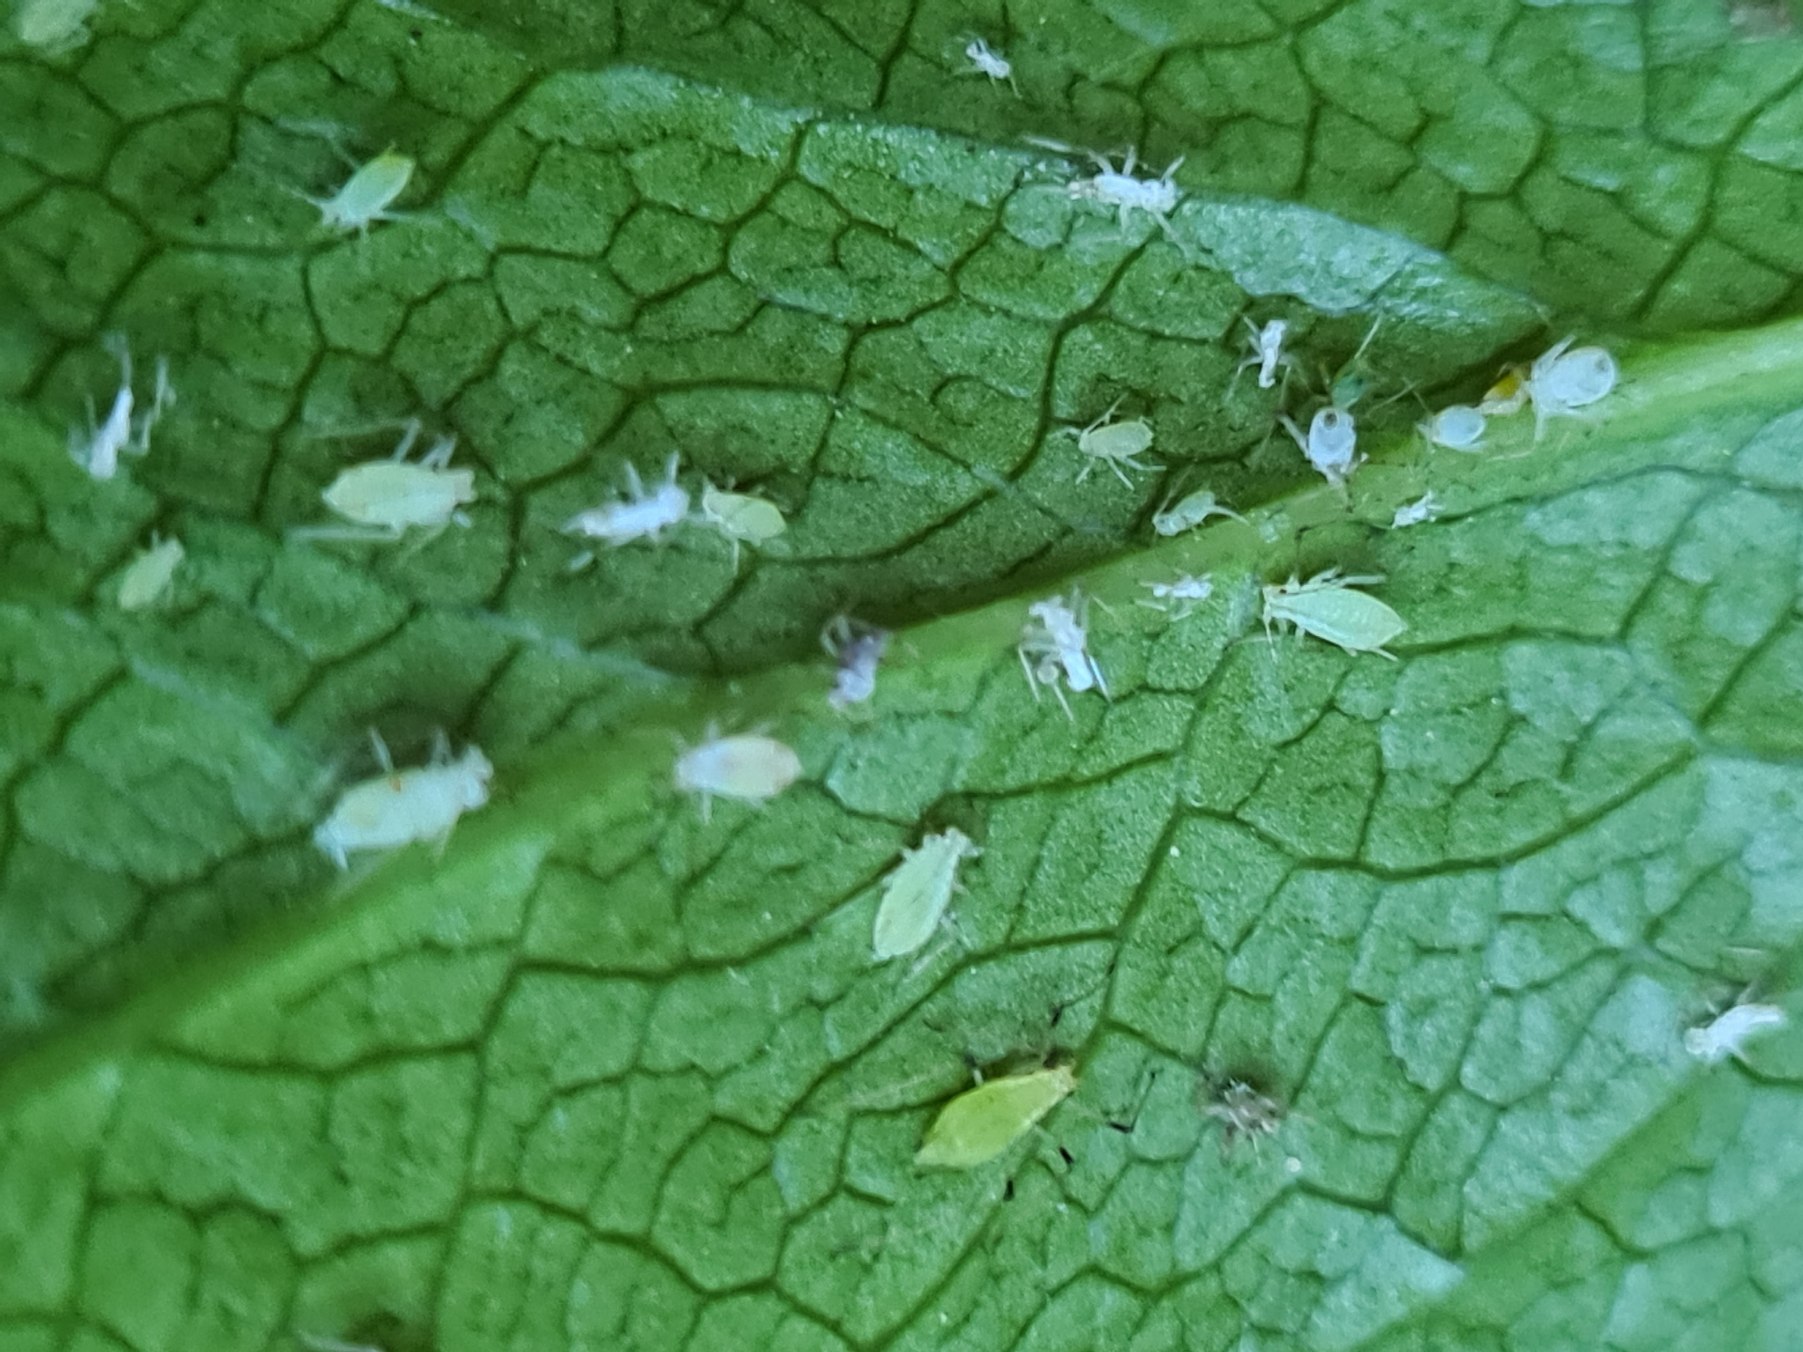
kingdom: Animalia
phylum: Arthropoda
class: Insecta
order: Hemiptera
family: Aphididae
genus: Macrosiphum
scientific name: Macrosiphum hellebori
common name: Julerosebladlus
